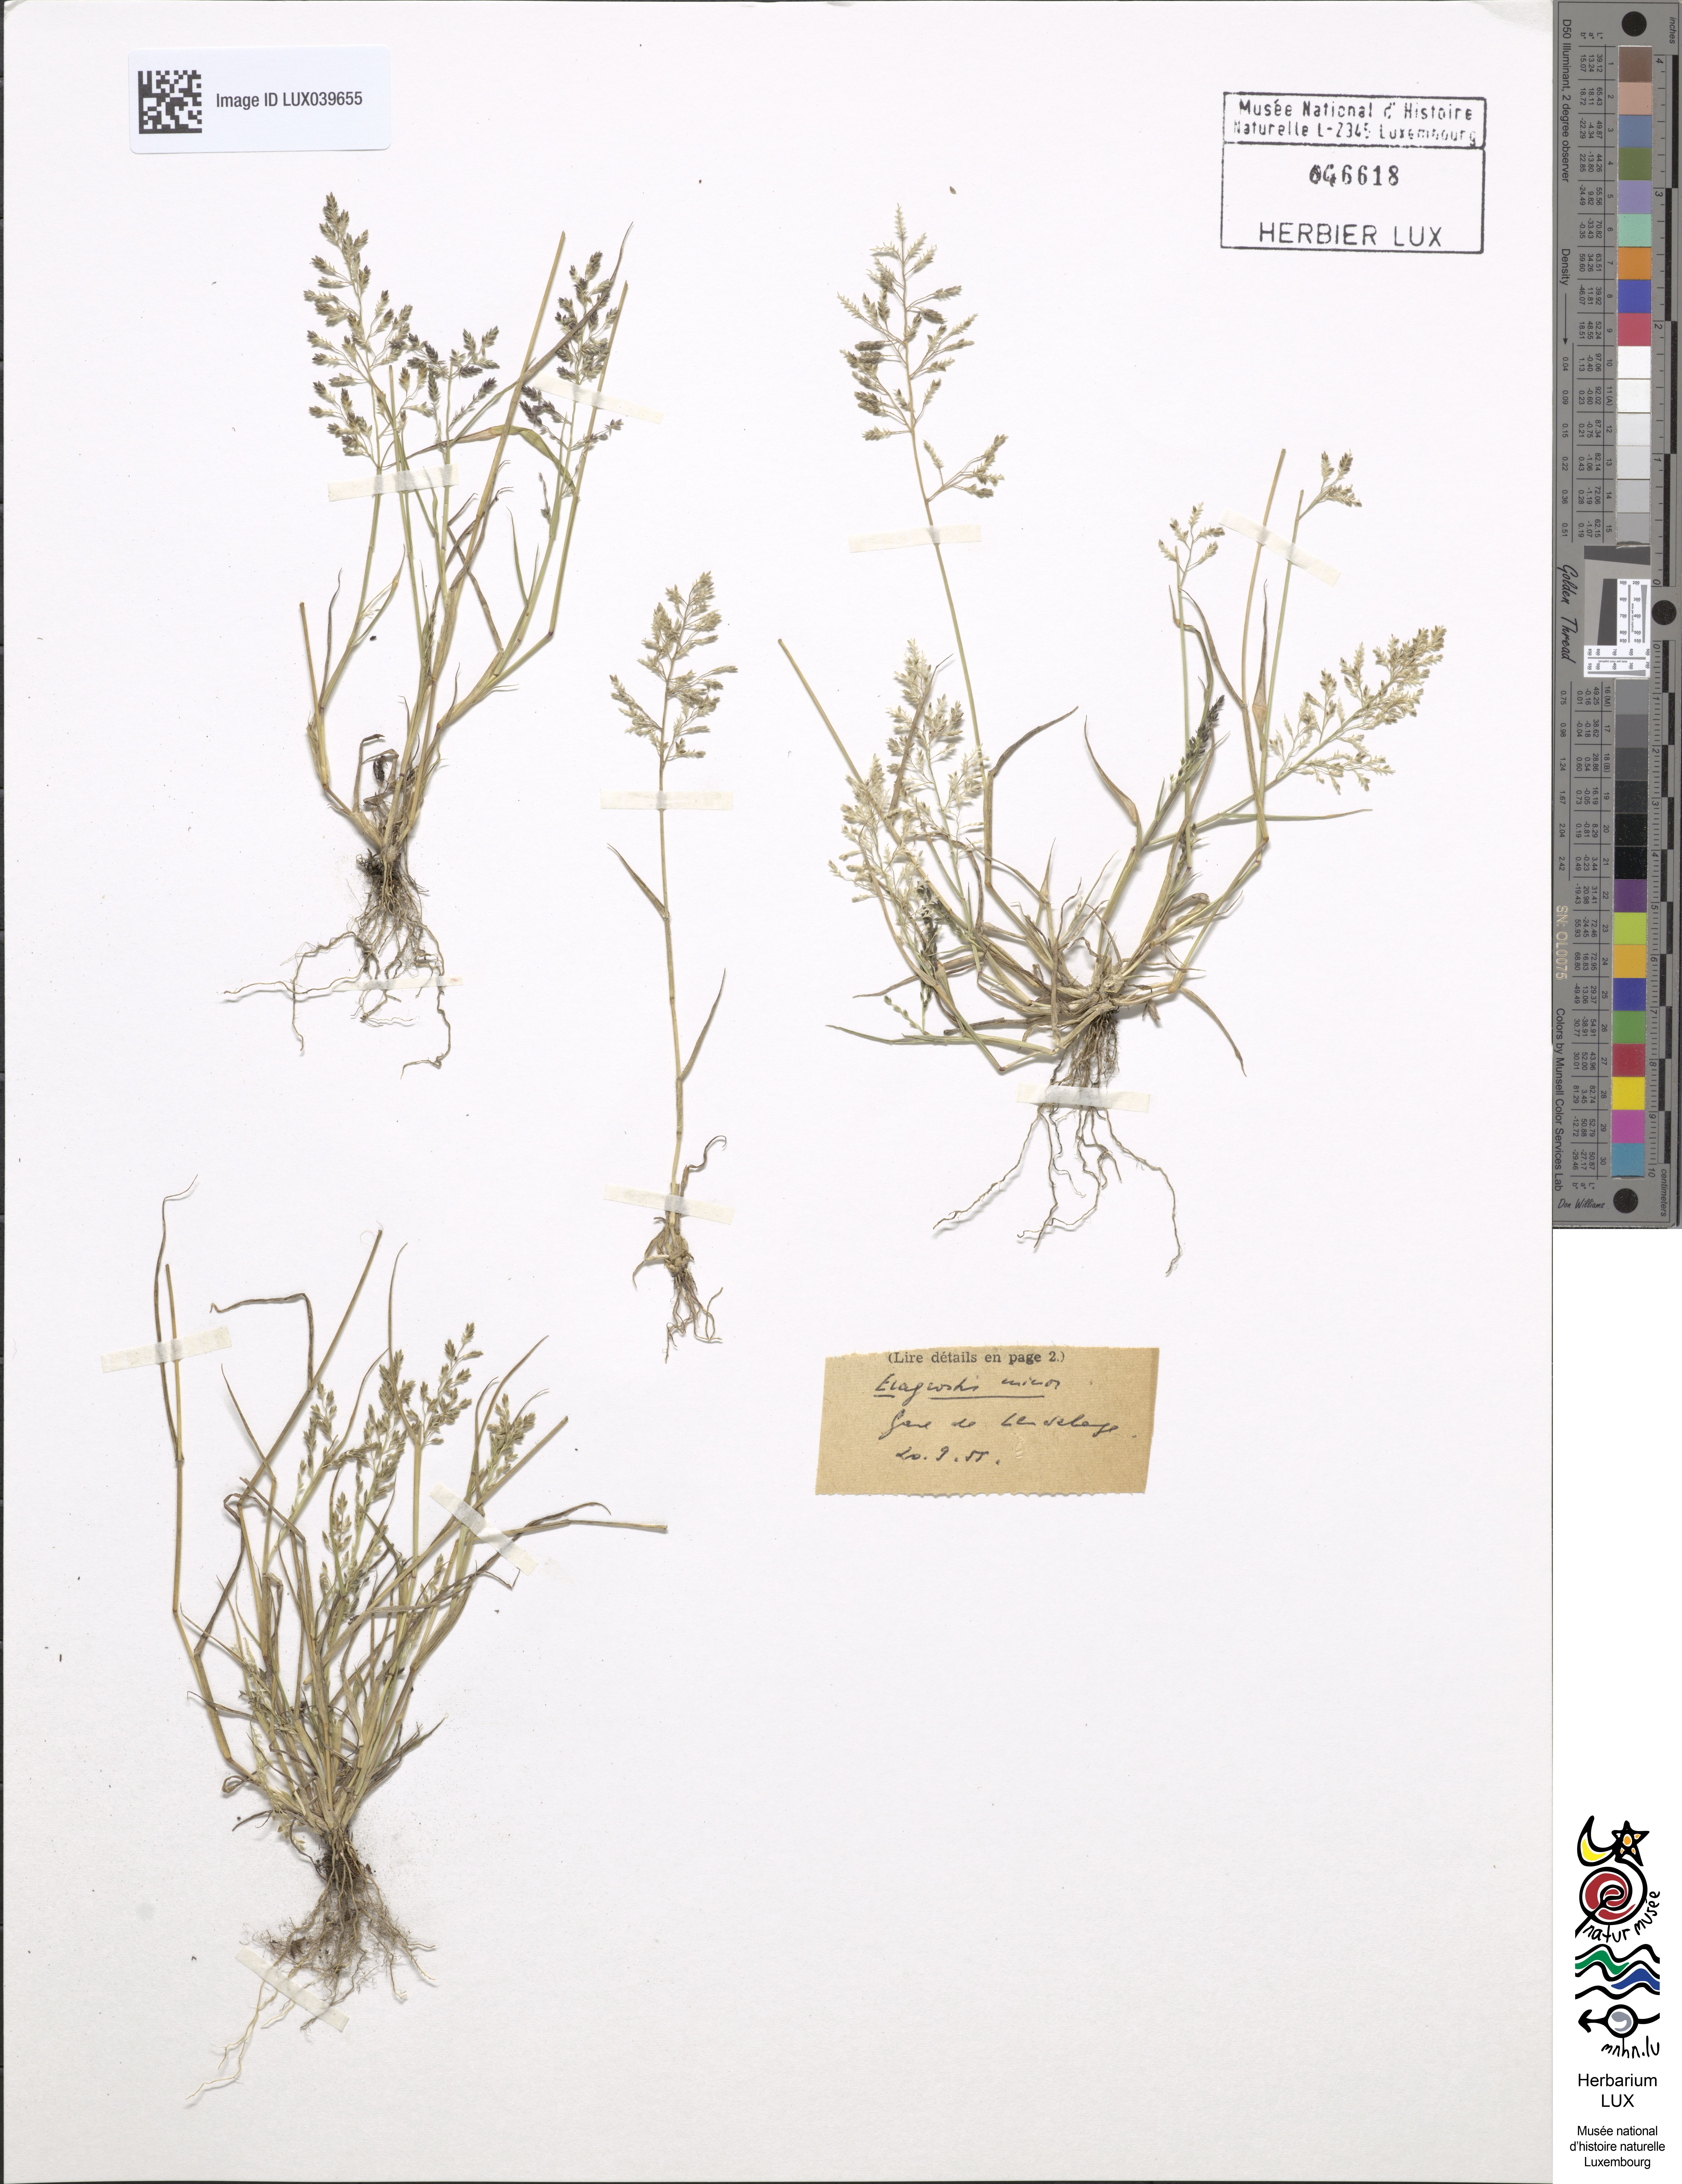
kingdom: Plantae
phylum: Tracheophyta
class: Liliopsida
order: Poales
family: Poaceae
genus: Eragrostis
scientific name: Eragrostis minor
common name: Small love-grass
